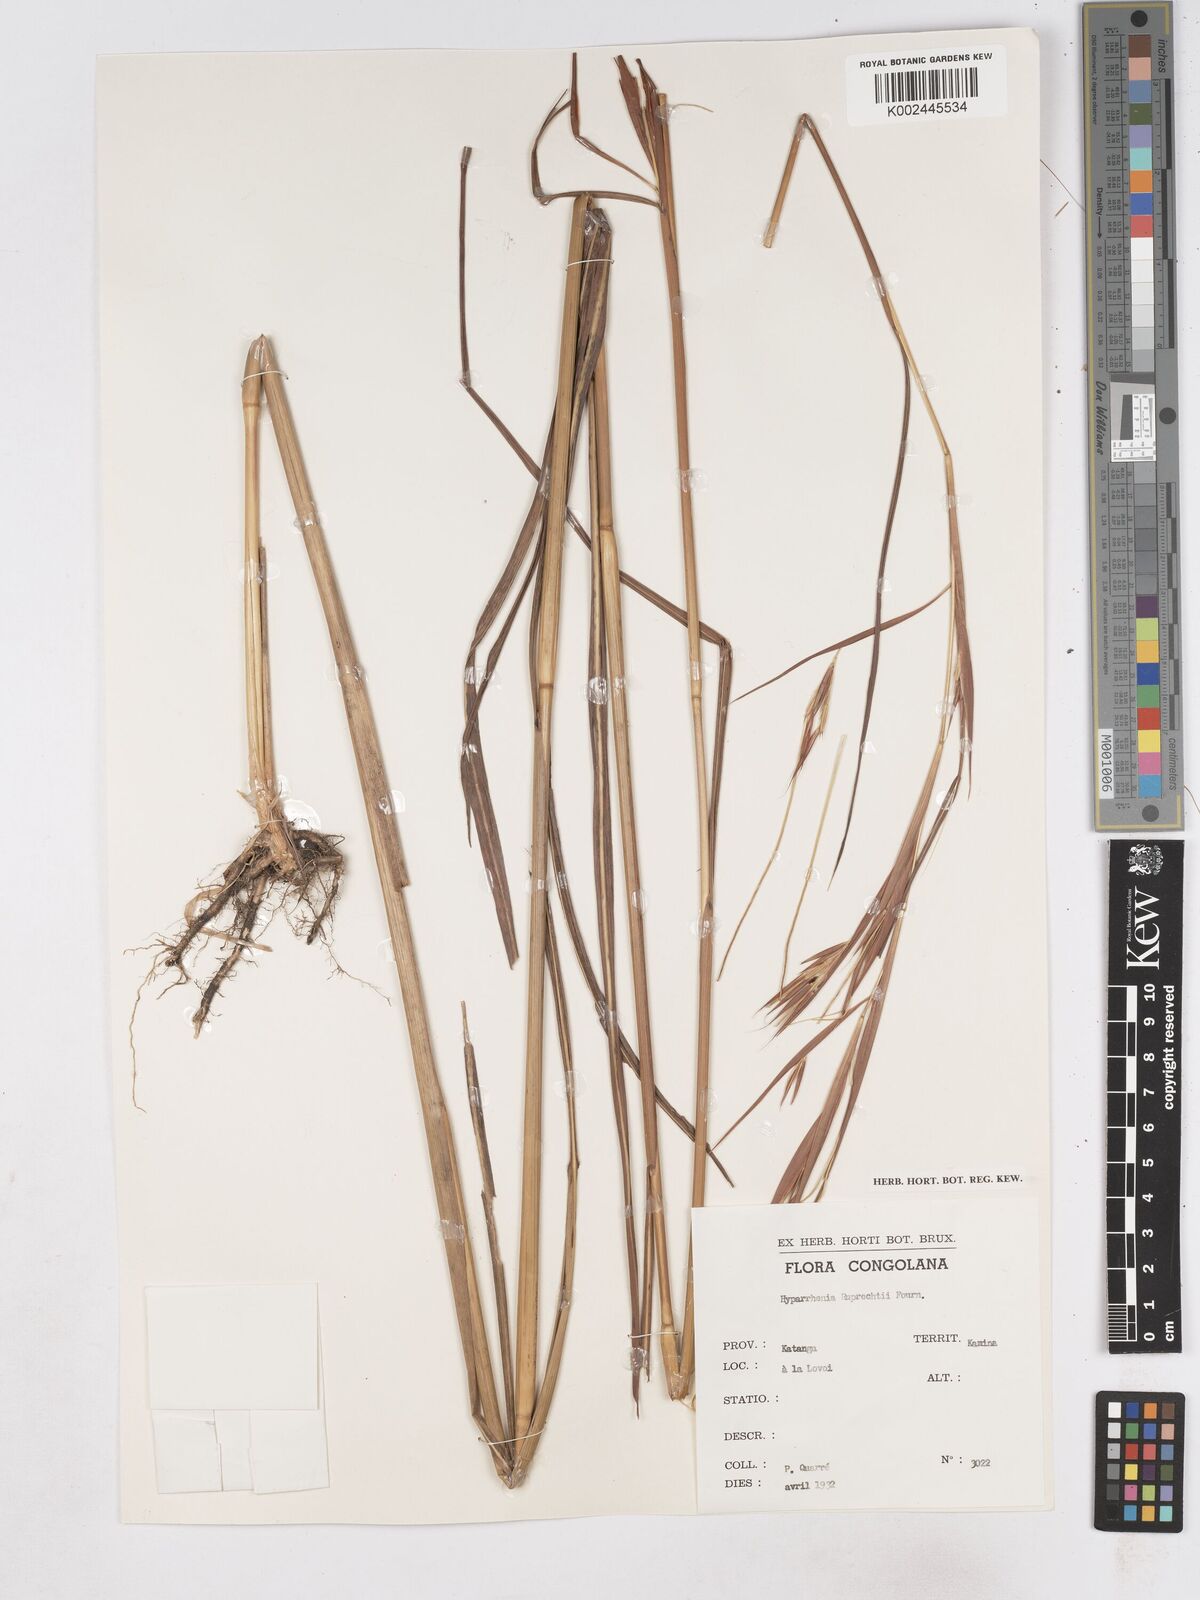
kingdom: Plantae
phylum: Tracheophyta
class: Liliopsida
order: Poales
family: Poaceae
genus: Hyperthelia
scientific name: Hyperthelia dissoluta
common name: Yellow thatching grass
